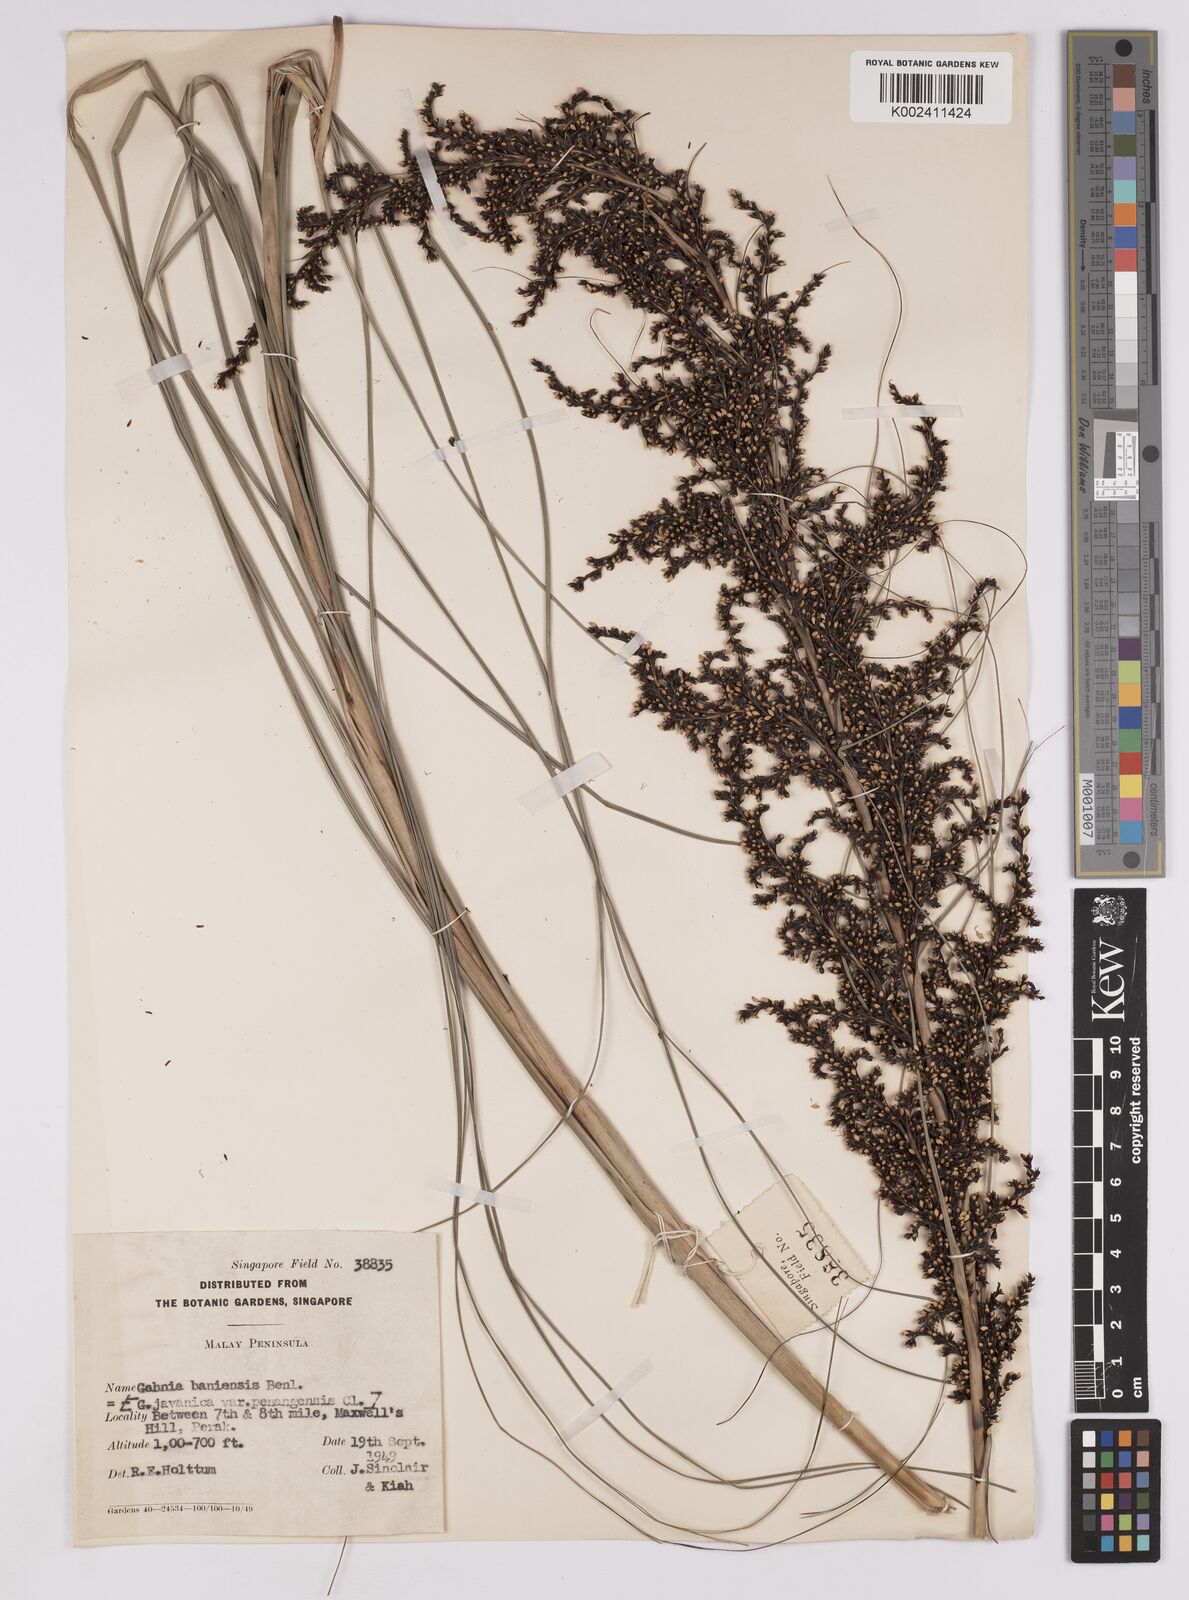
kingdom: Plantae
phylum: Tracheophyta
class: Liliopsida
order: Poales
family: Cyperaceae
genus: Gahnia
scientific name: Gahnia baniensis
